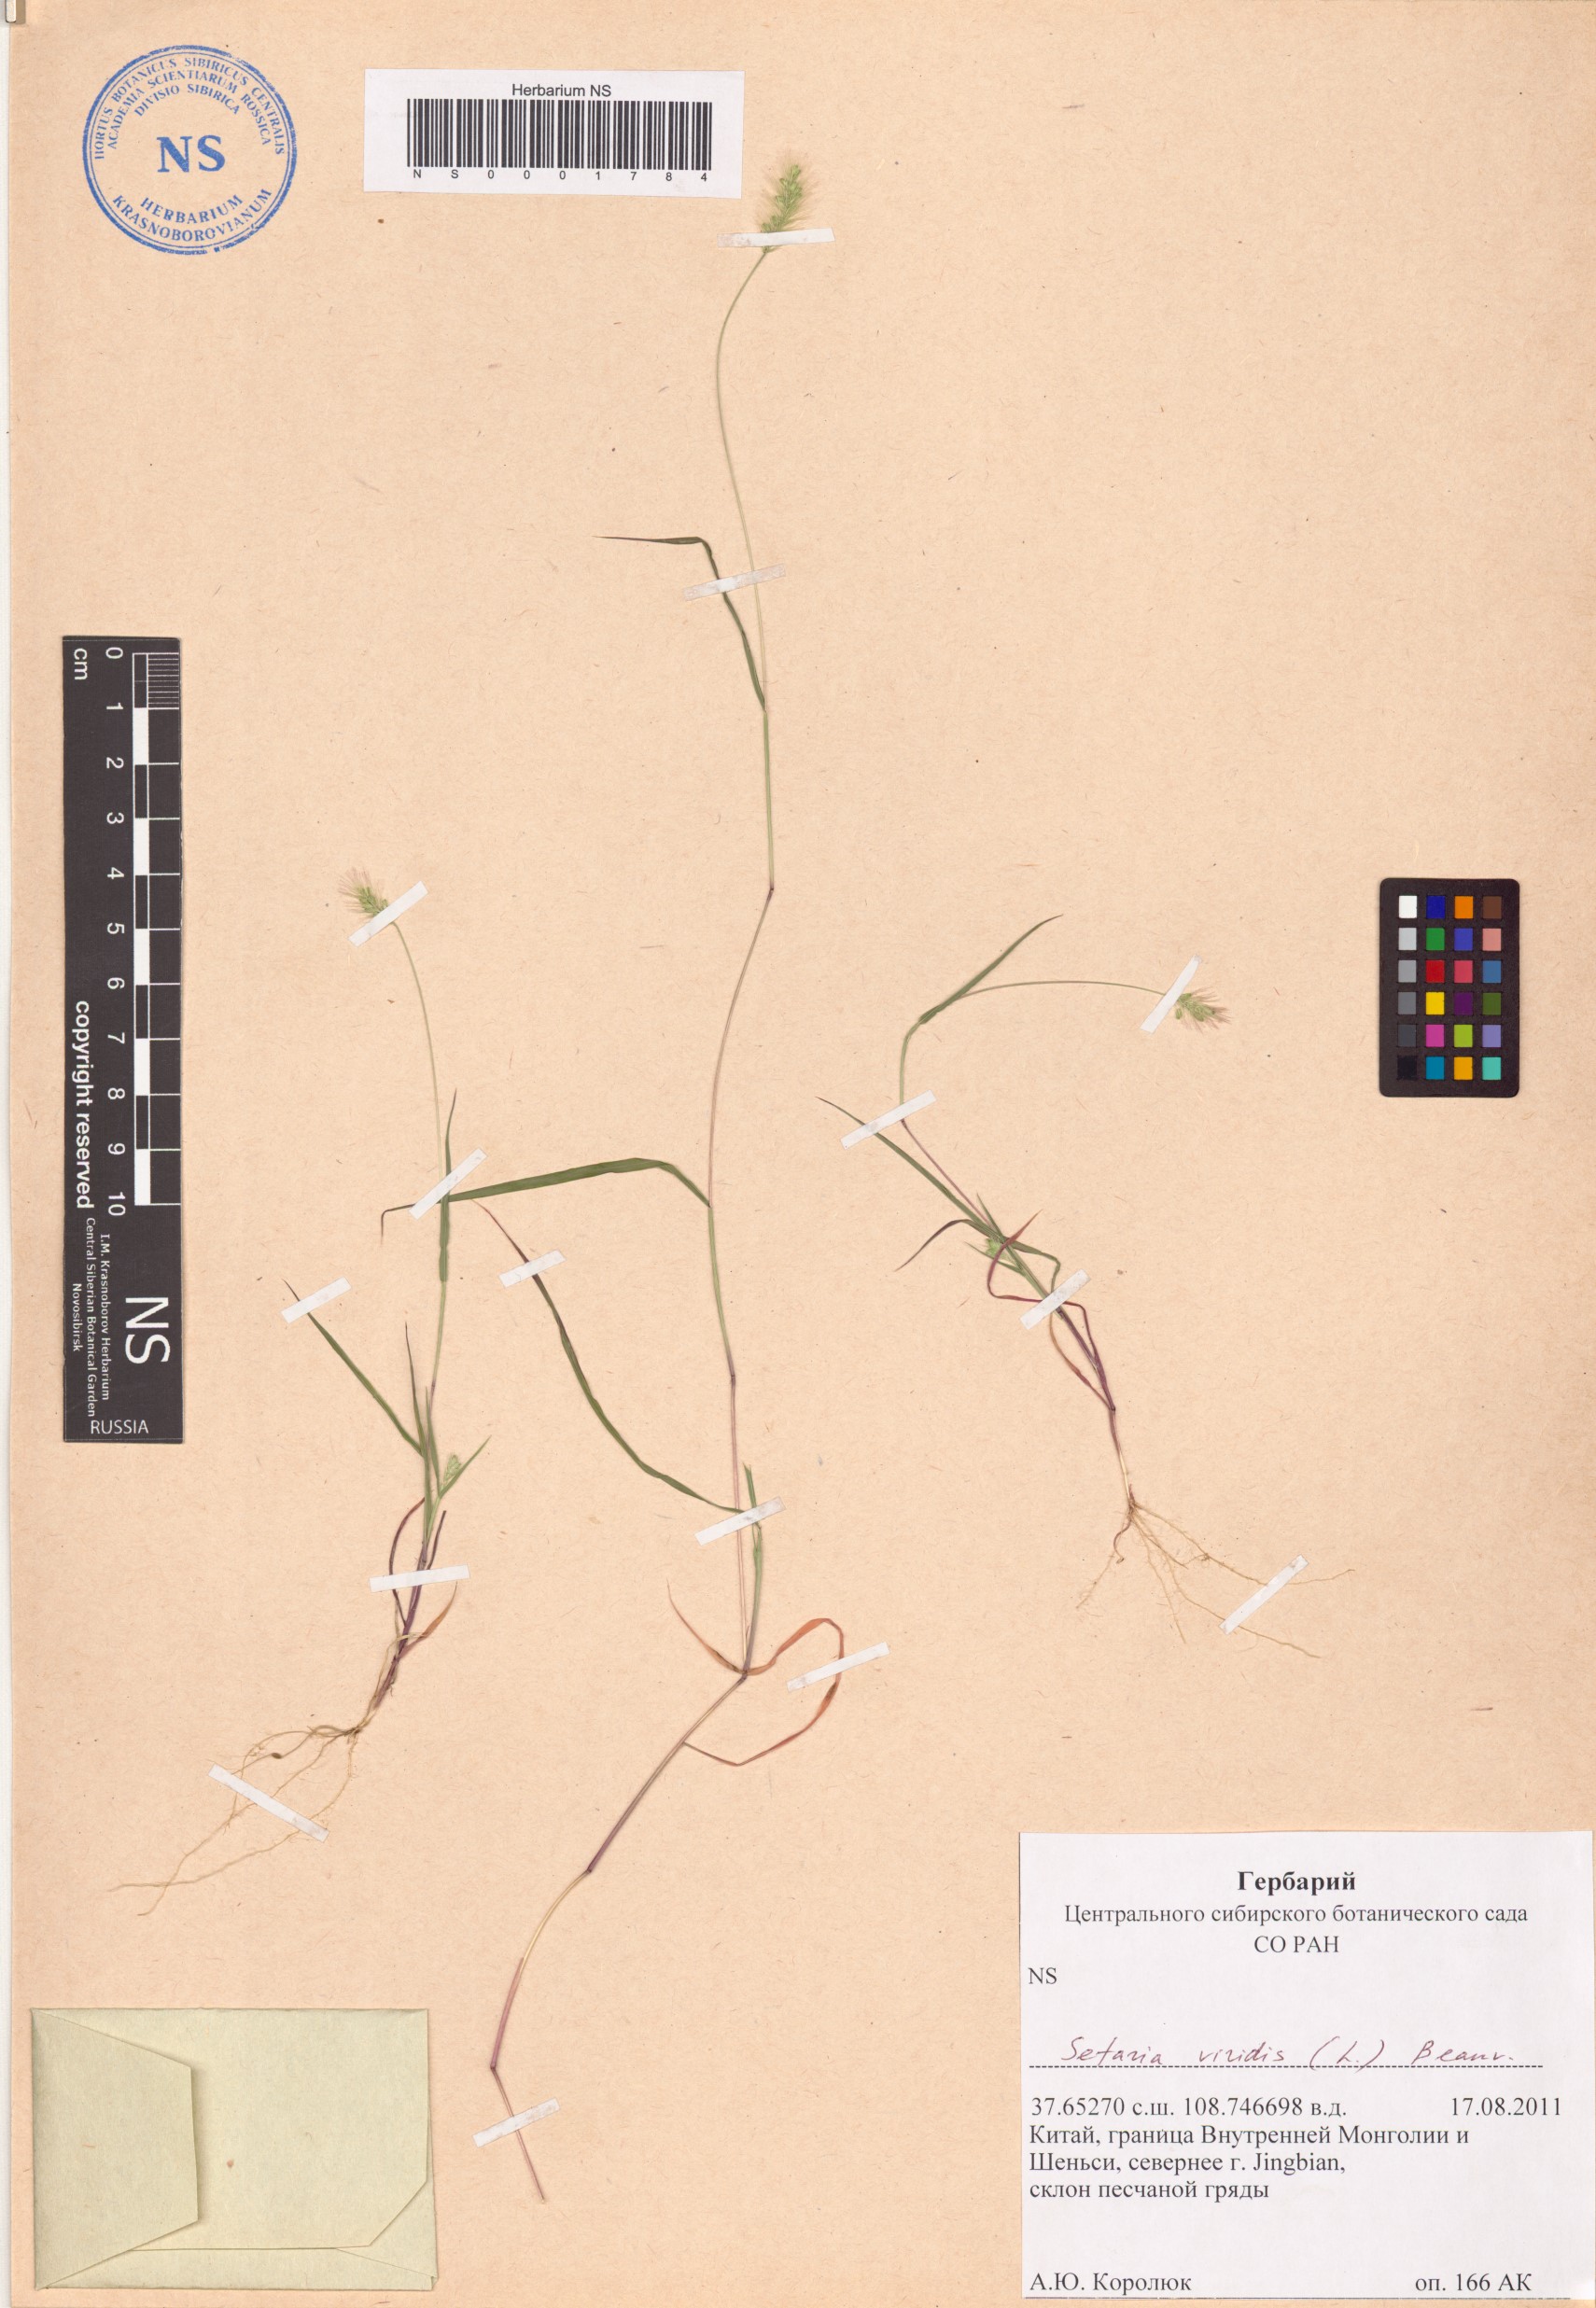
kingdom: Plantae
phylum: Tracheophyta
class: Liliopsida
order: Poales
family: Poaceae
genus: Setaria
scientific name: Setaria viridis
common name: Green bristlegrass
